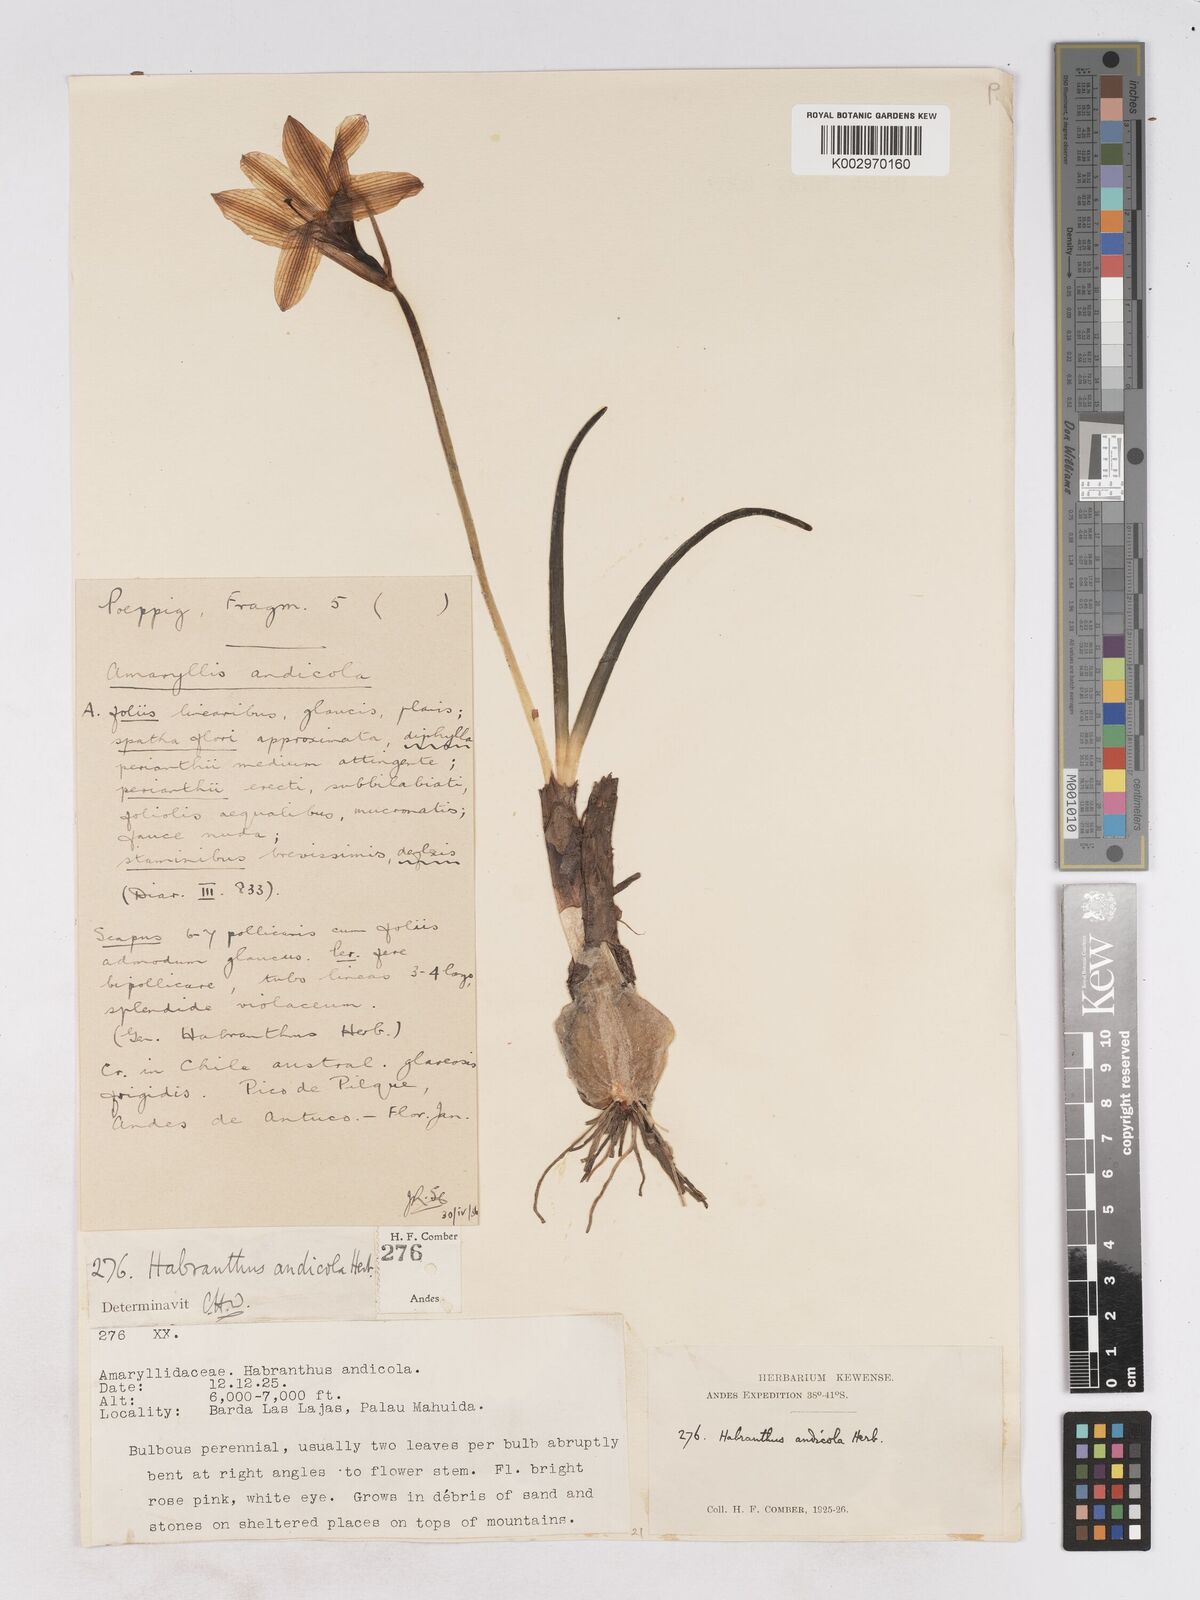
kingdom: Plantae
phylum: Tracheophyta
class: Liliopsida
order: Asparagales
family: Amaryllidaceae
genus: Rhodolirium
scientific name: Rhodolirium andicola
